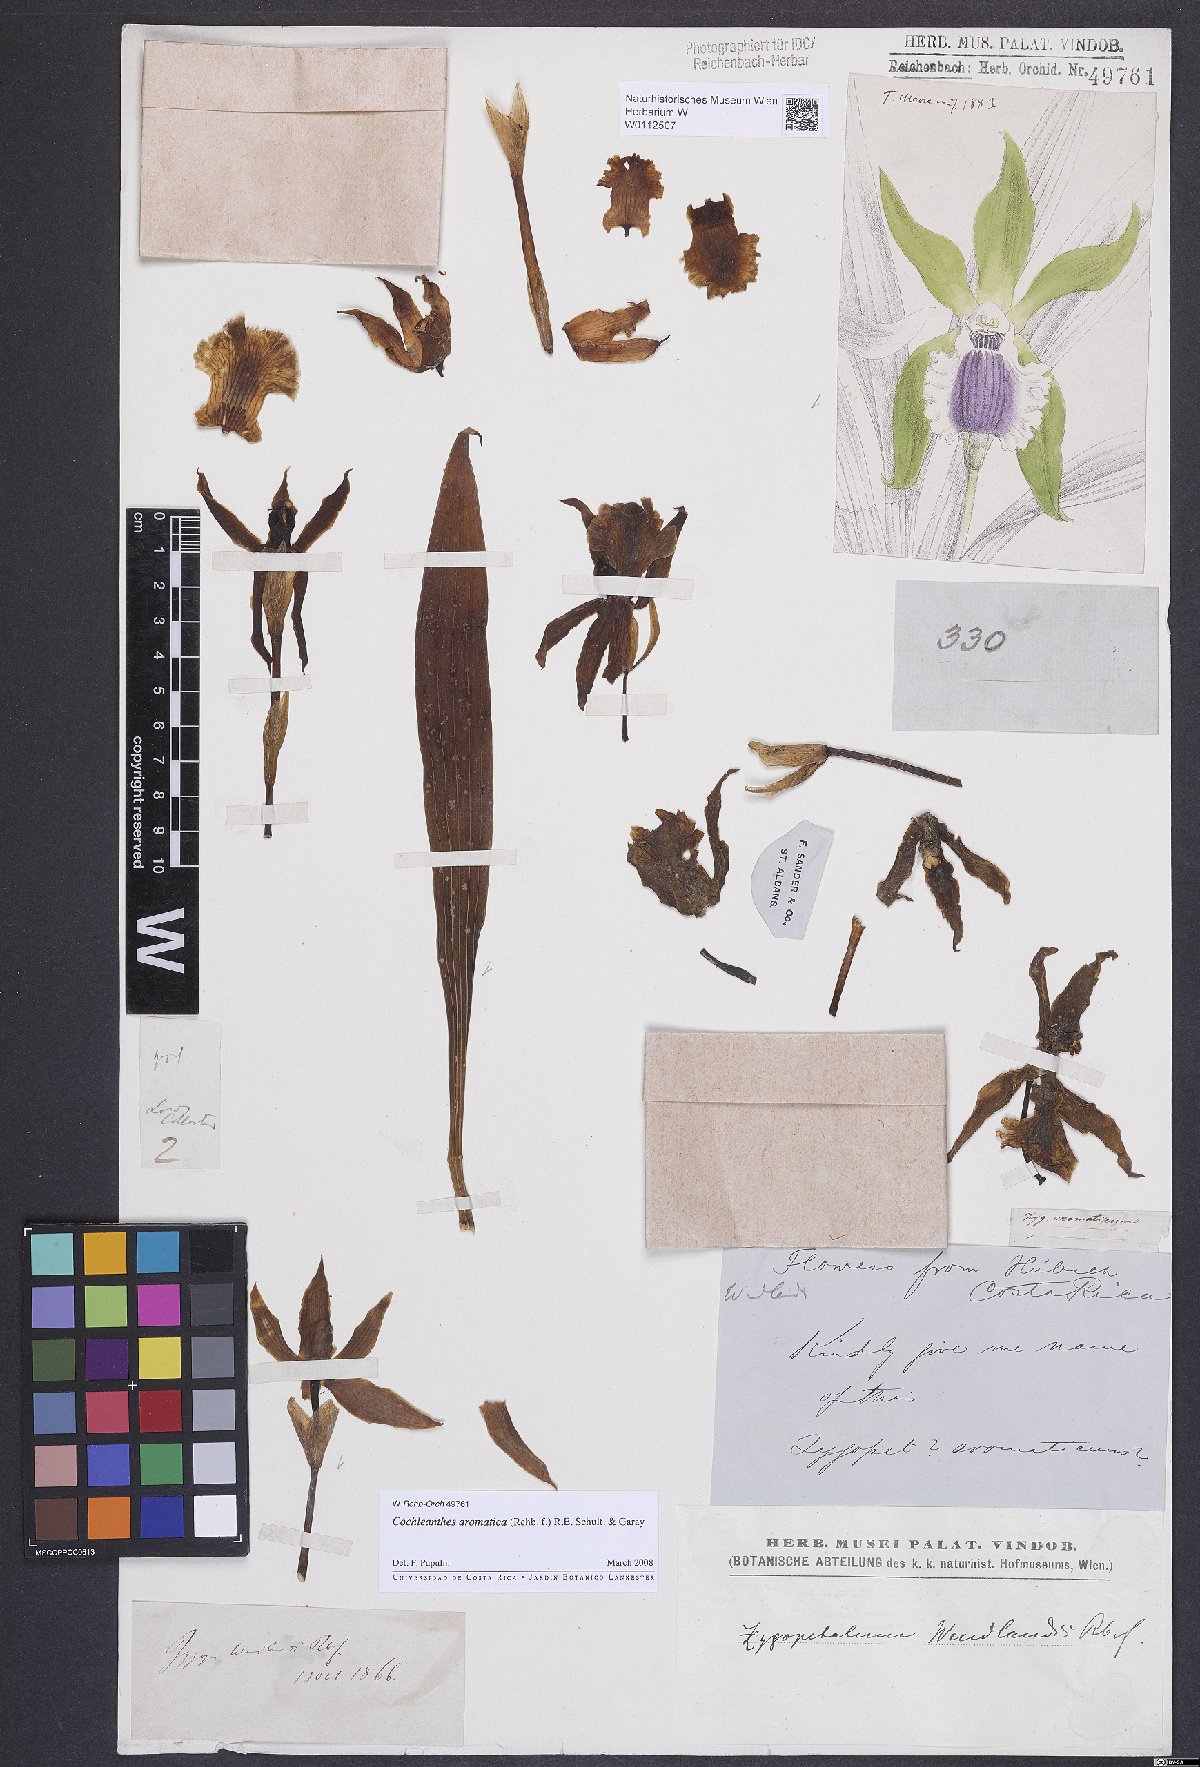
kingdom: Plantae
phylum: Tracheophyta
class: Liliopsida
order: Asparagales
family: Orchidaceae
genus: Cochleanthes
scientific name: Cochleanthes aromatica
